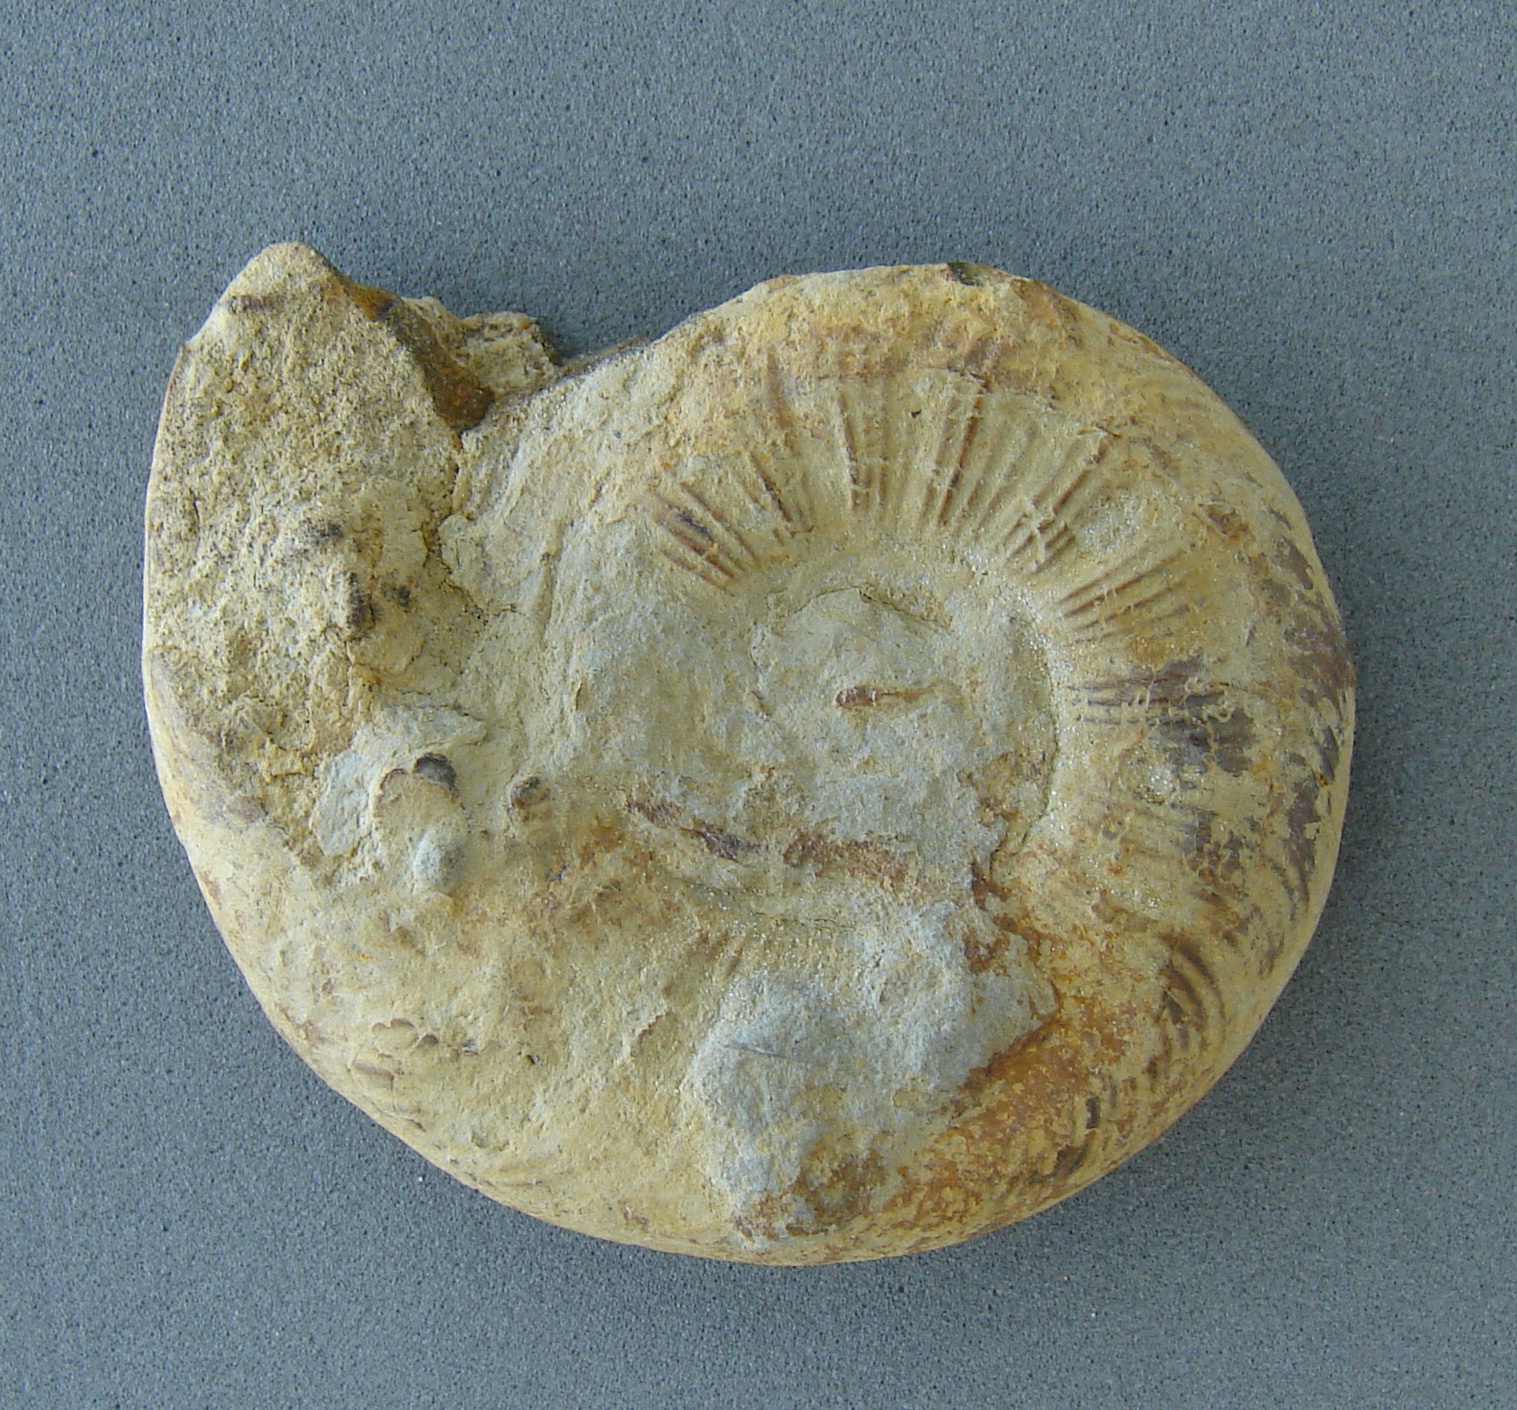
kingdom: Animalia
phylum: Mollusca
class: Cephalopoda
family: Hildoceratidae
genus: Pleydellia
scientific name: Pleydellia mactra
